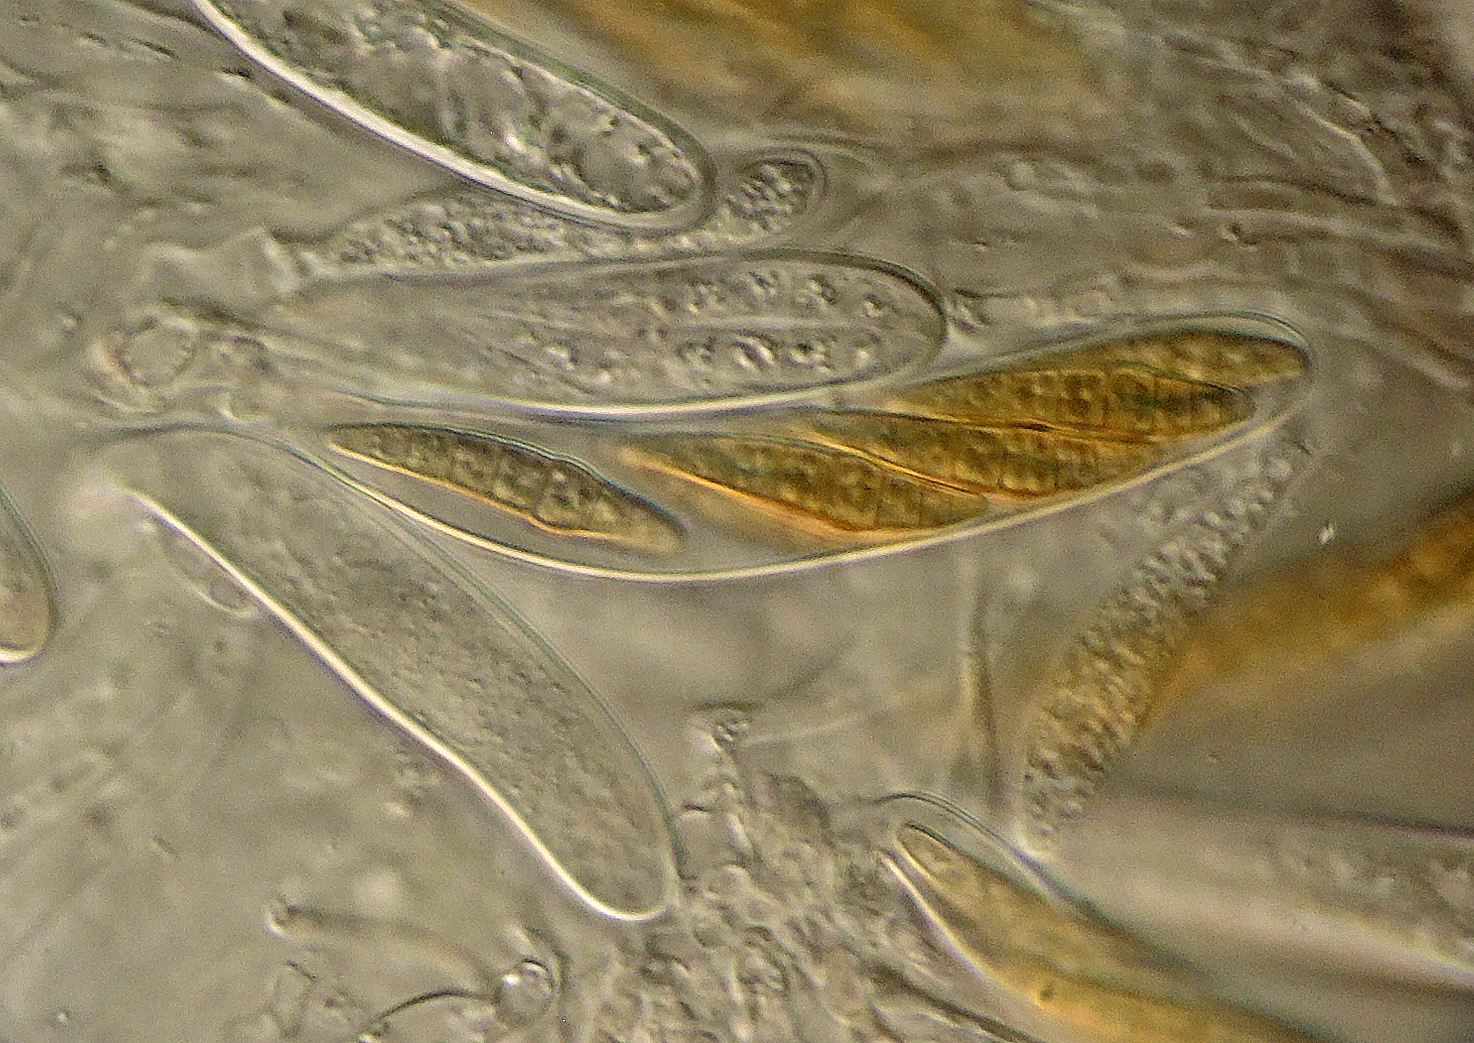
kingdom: Fungi
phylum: Ascomycota
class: Dothideomycetes
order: Pleosporales
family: Leptosphaeriaceae
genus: Leptosphaeria
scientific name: Leptosphaeria culmifraga
